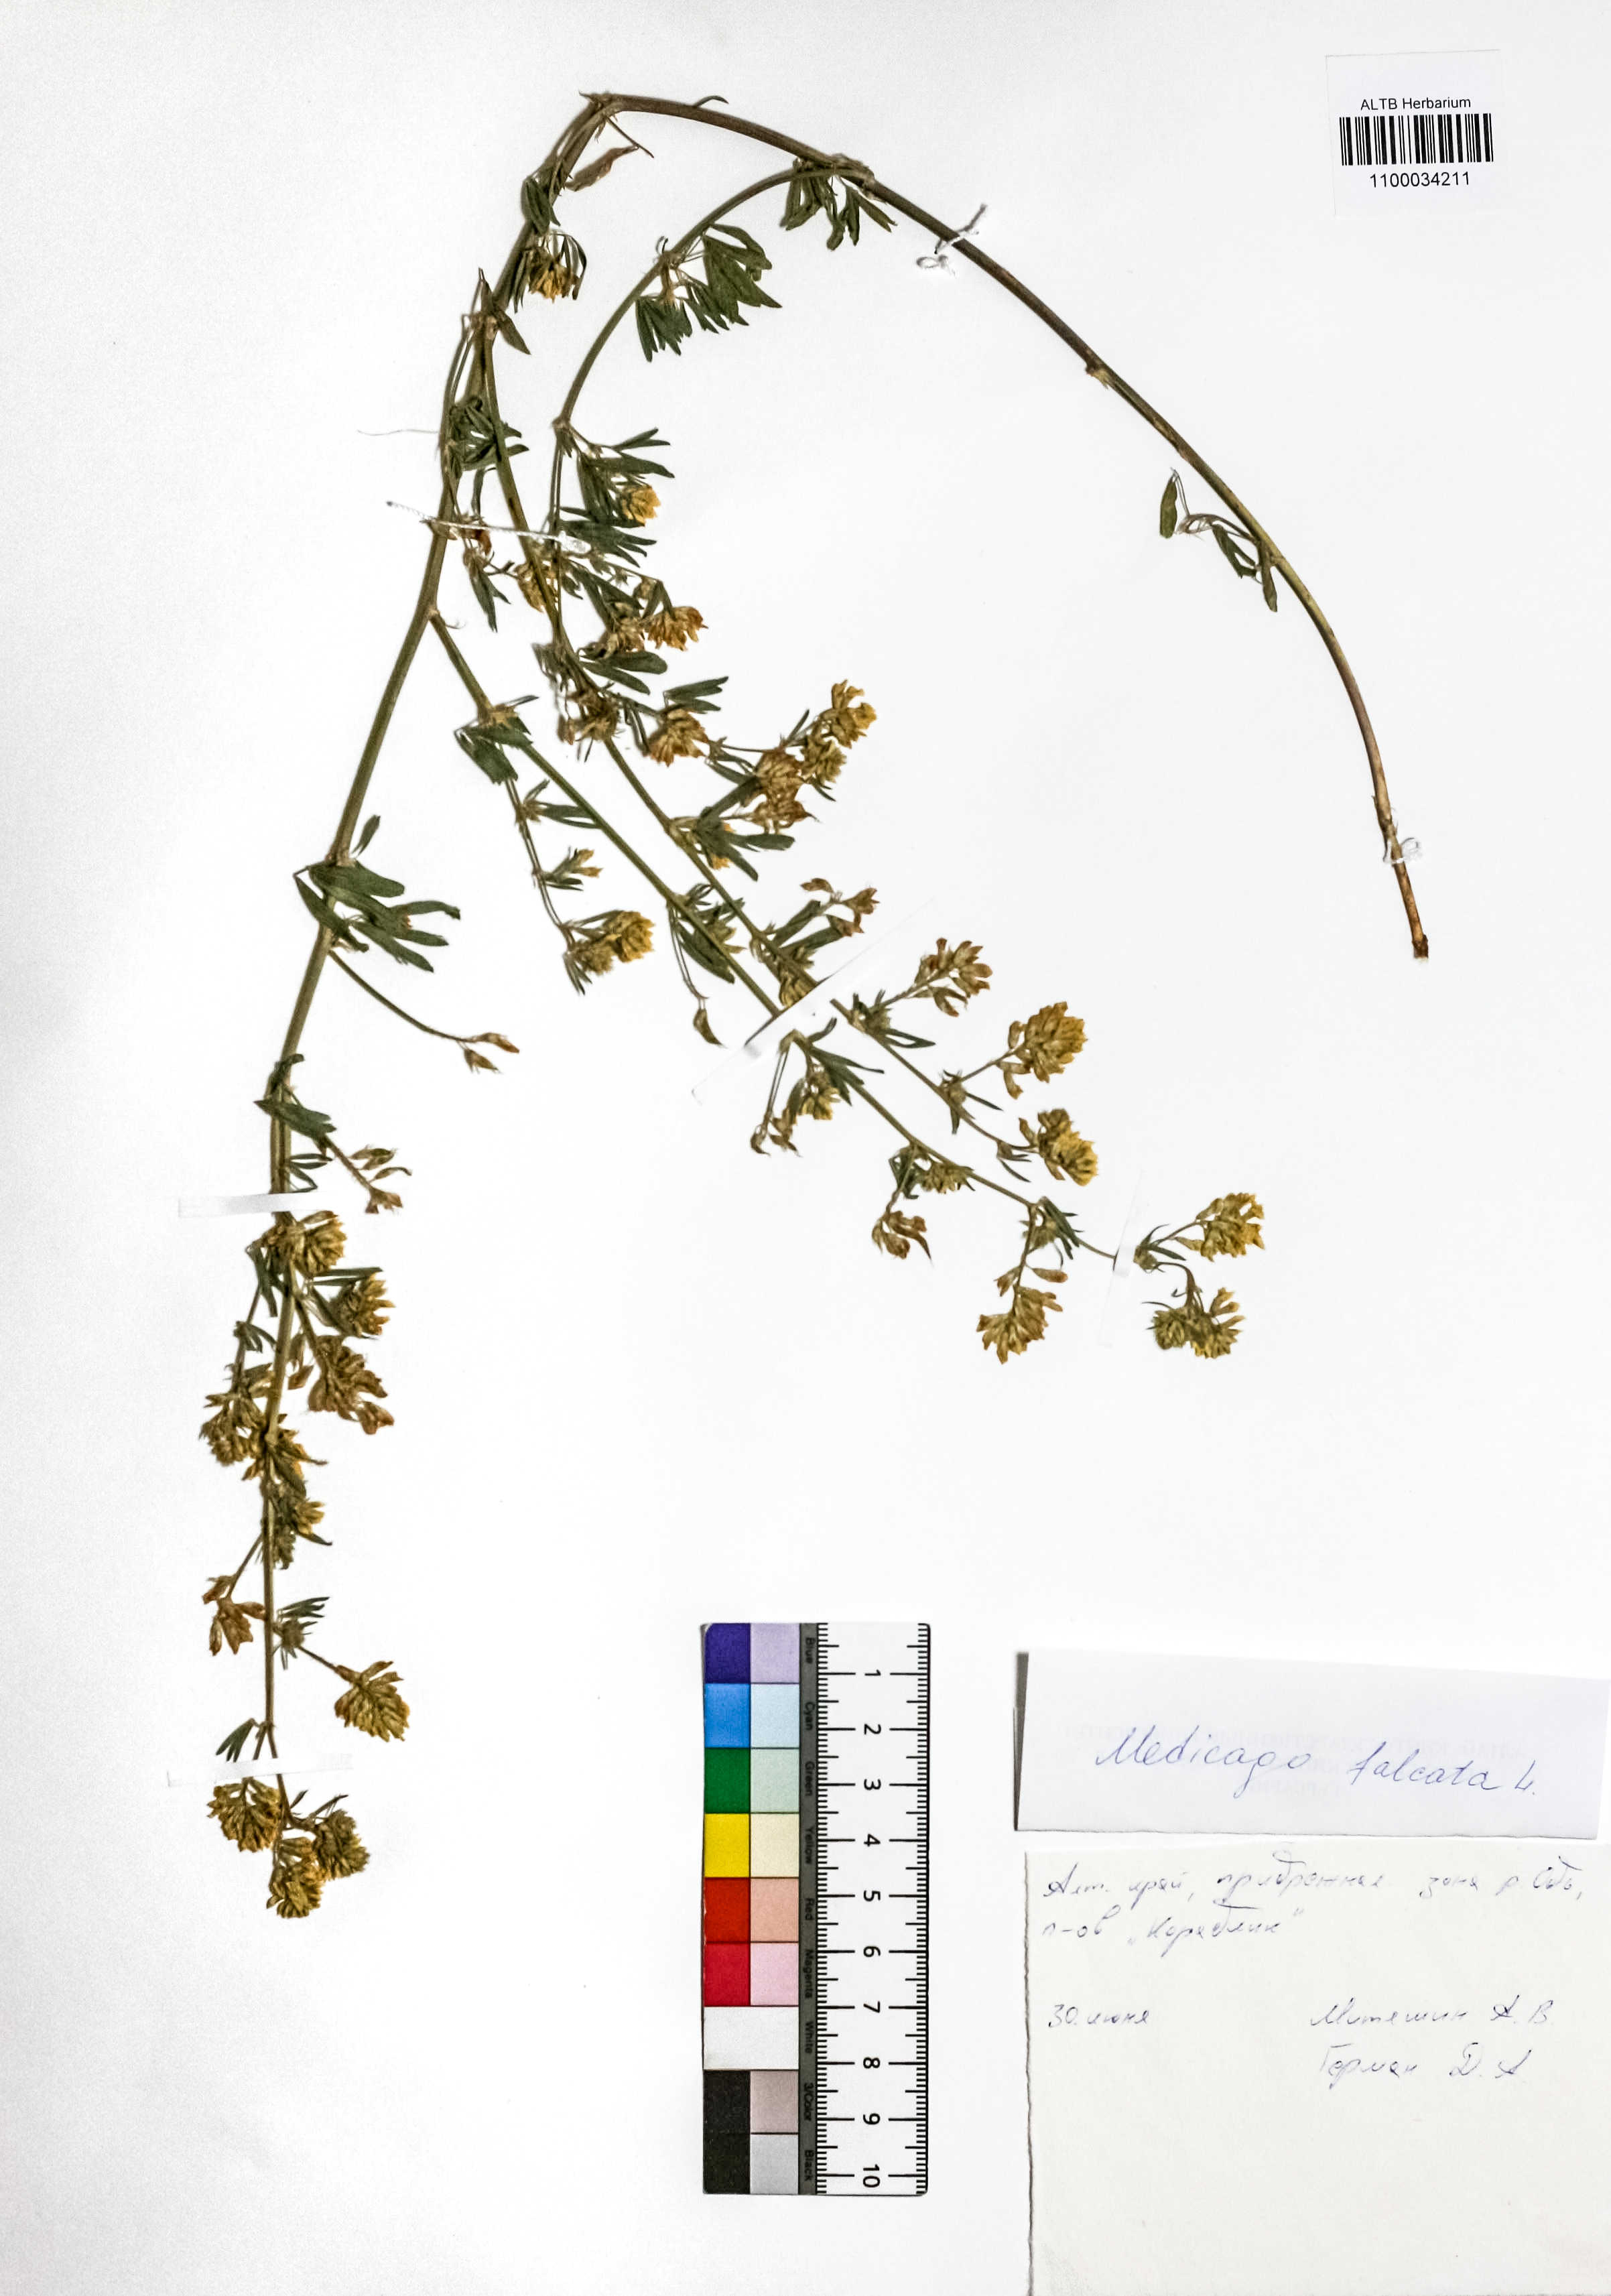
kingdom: Plantae
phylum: Tracheophyta
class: Magnoliopsida
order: Fabales
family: Fabaceae
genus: Medicago
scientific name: Medicago falcata
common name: Sickle medick
